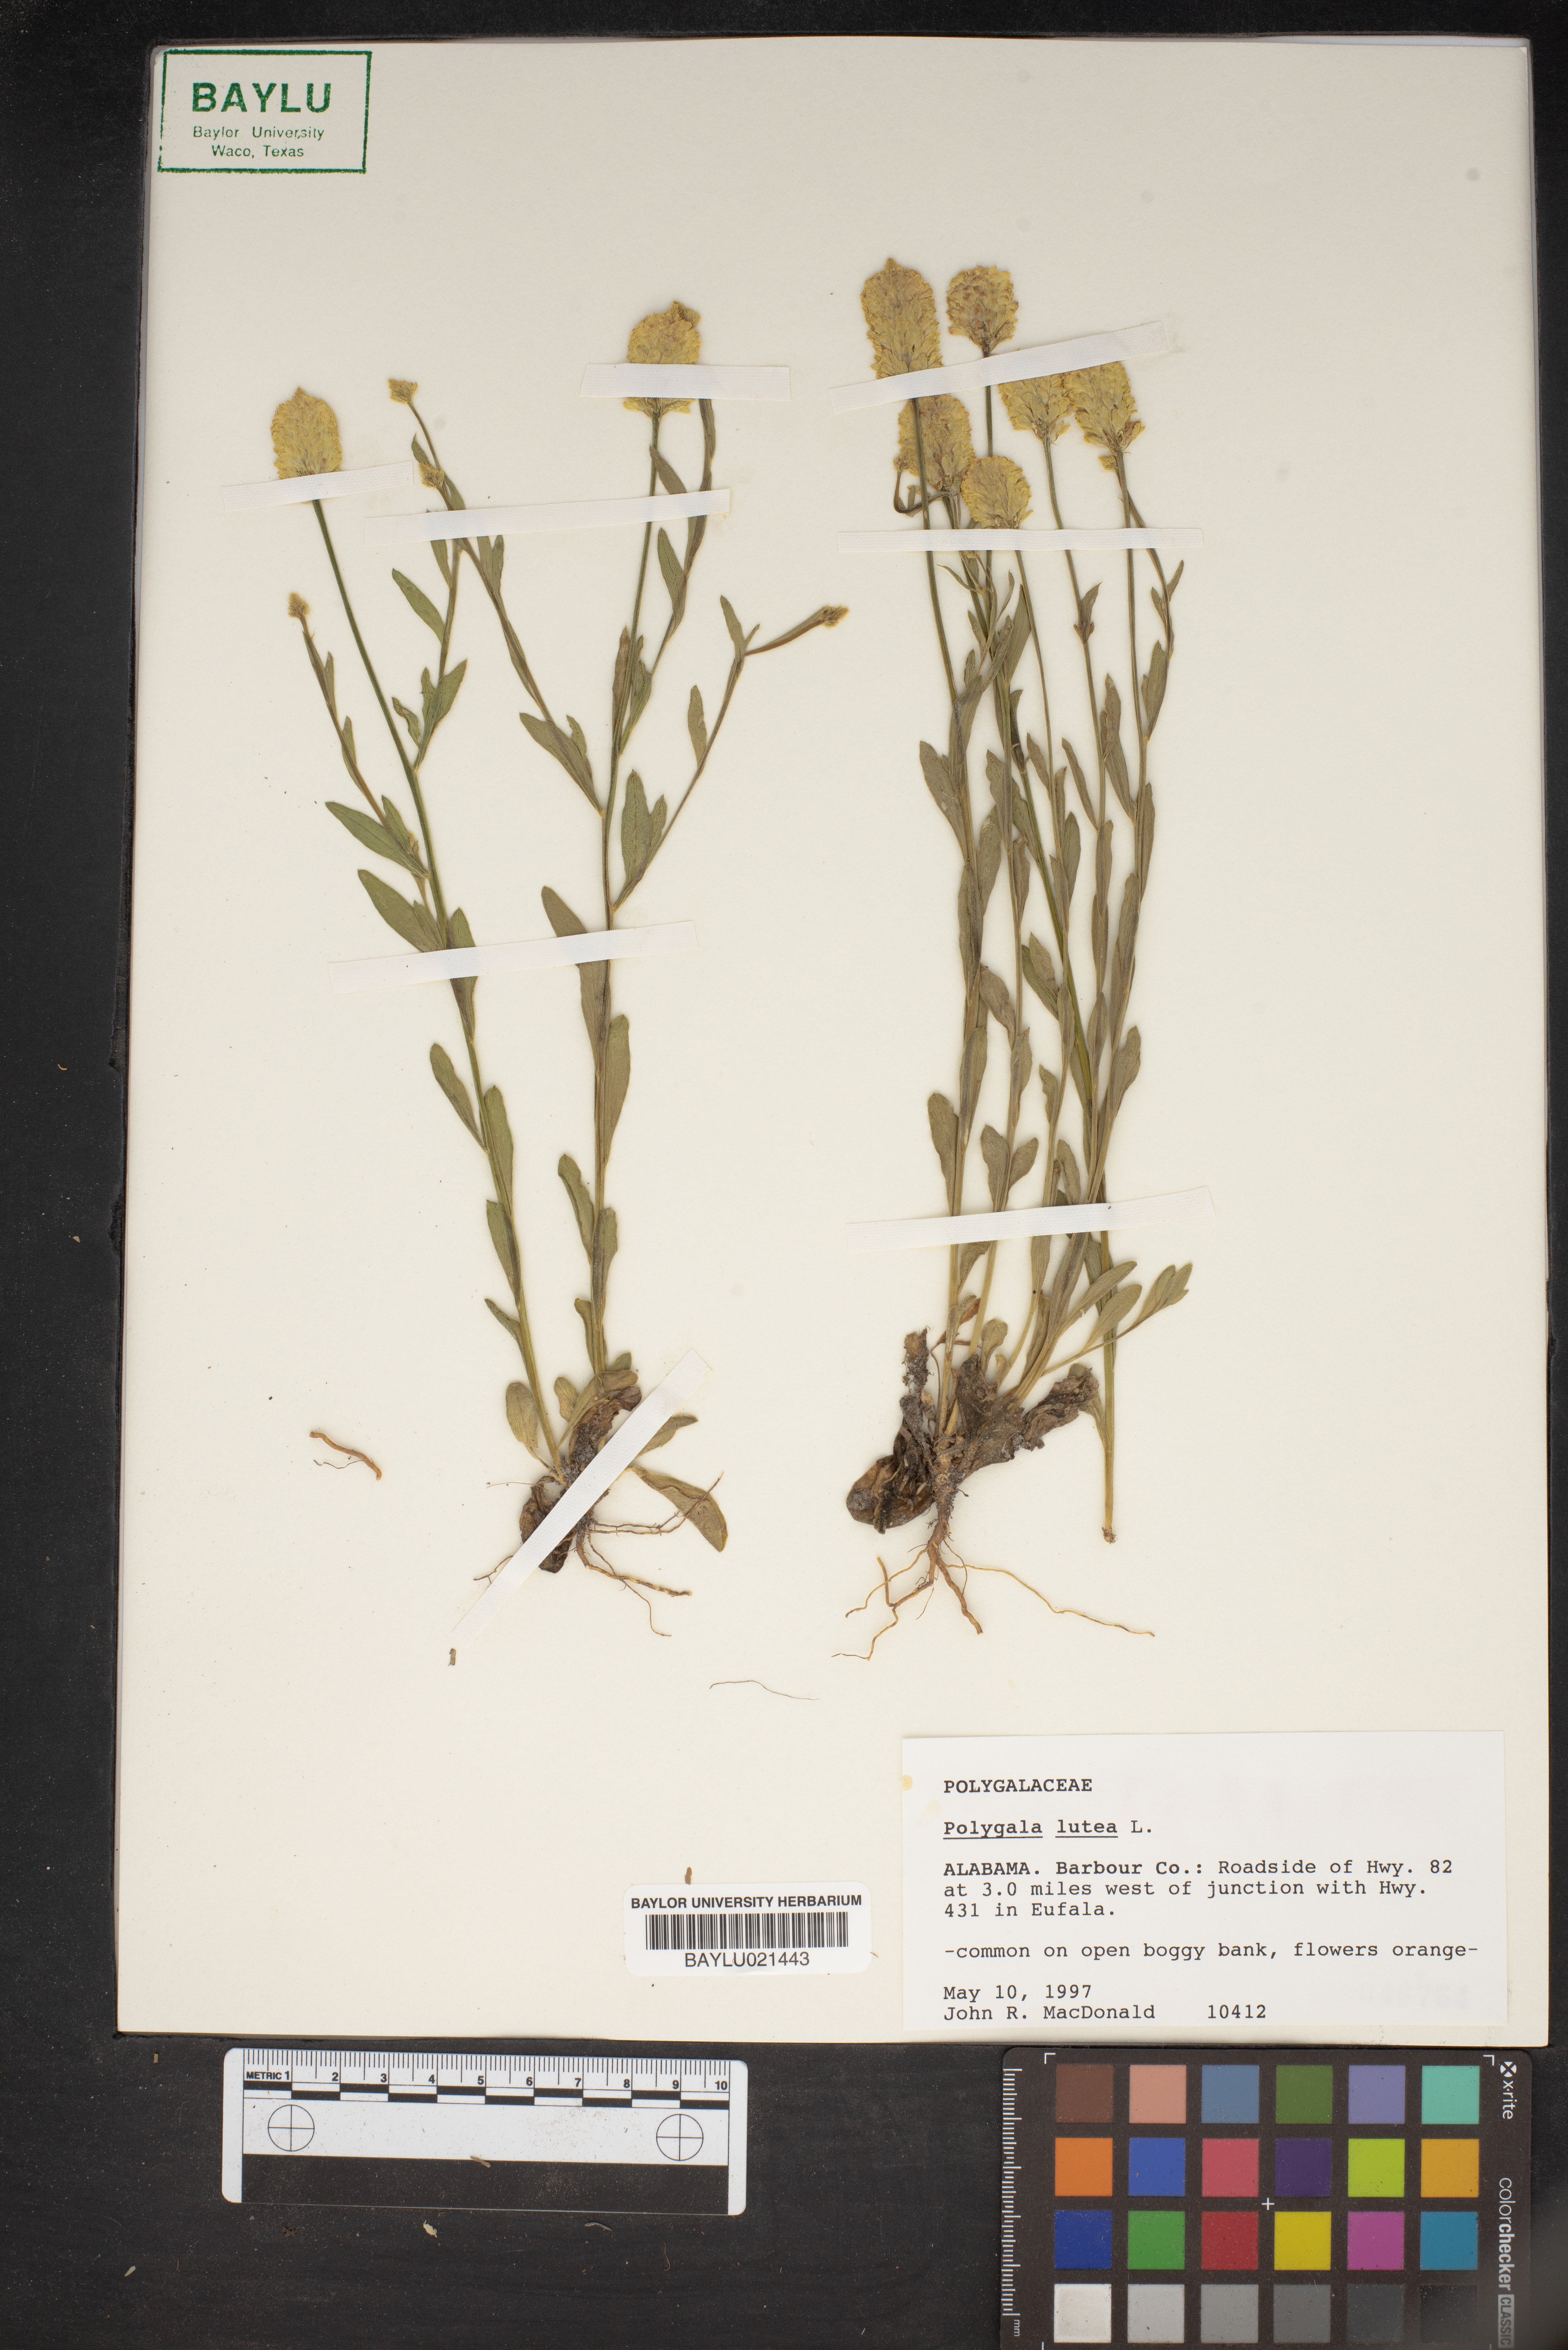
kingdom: Plantae
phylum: Tracheophyta
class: Magnoliopsida
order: Fabales
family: Polygalaceae
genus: Polygala
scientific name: Polygala lutea
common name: Orange milkwort
